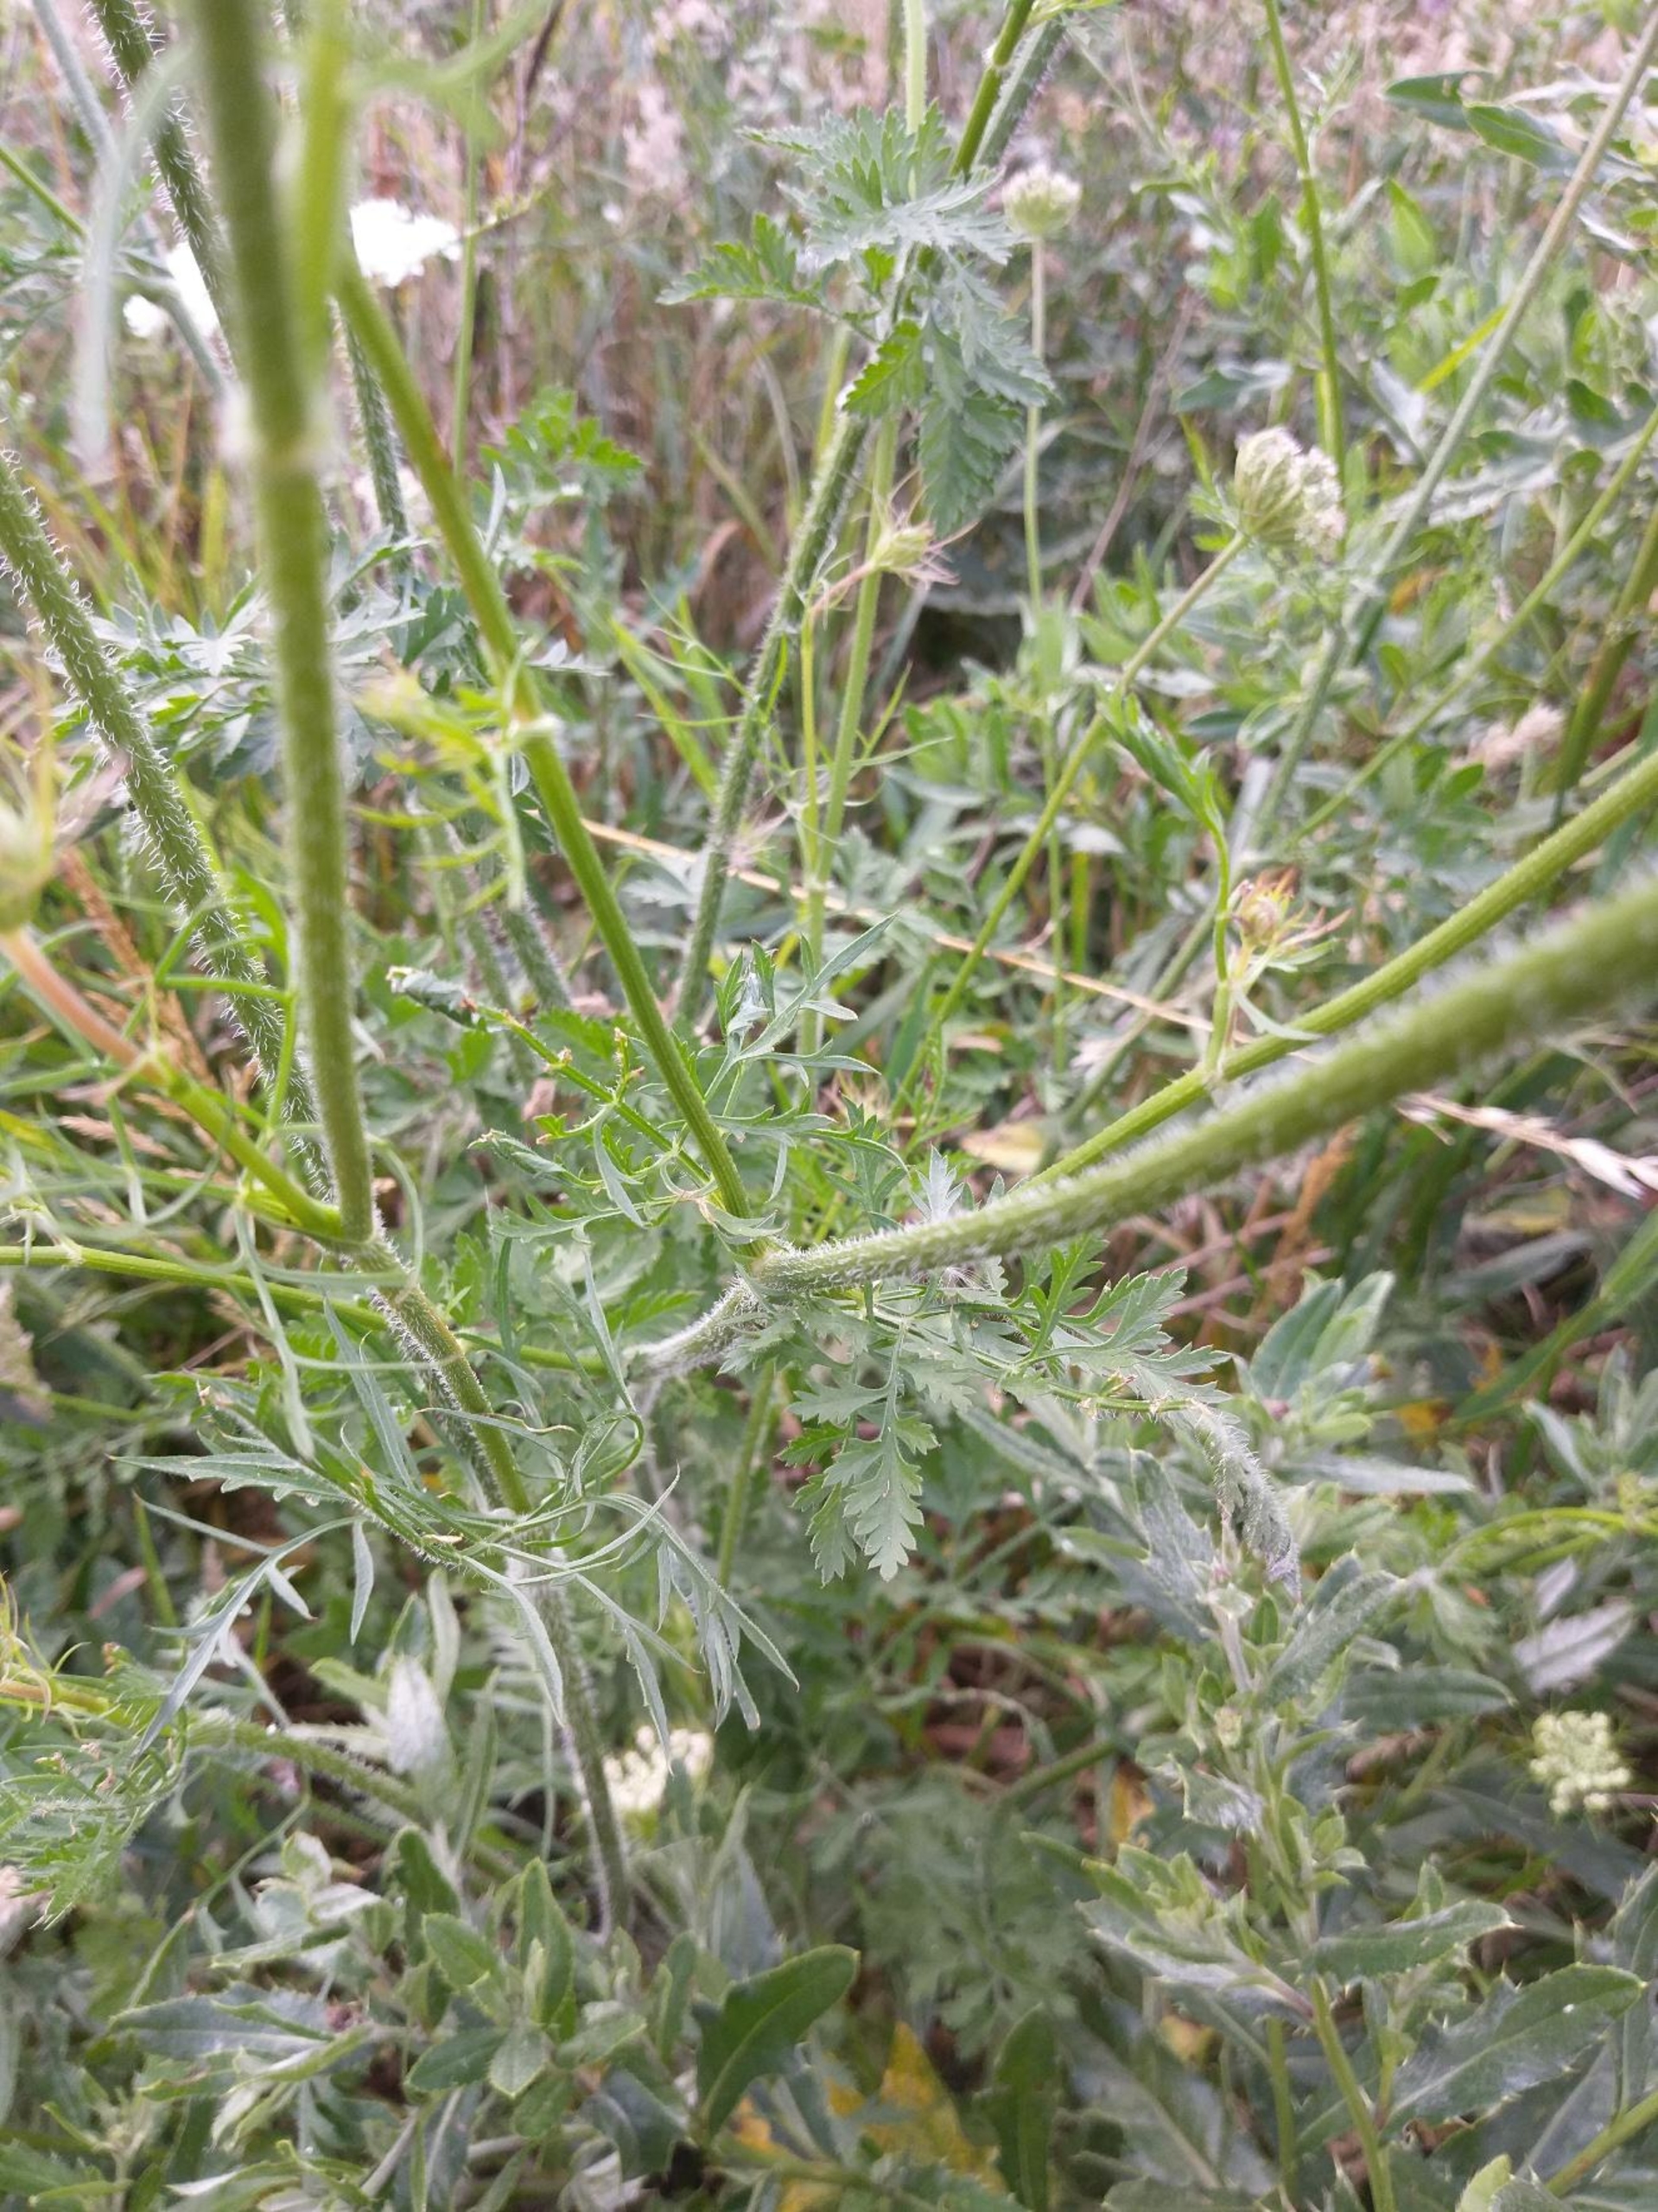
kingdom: Plantae
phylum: Tracheophyta
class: Magnoliopsida
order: Apiales
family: Apiaceae
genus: Daucus
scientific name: Daucus carota
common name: Vild gulerod
